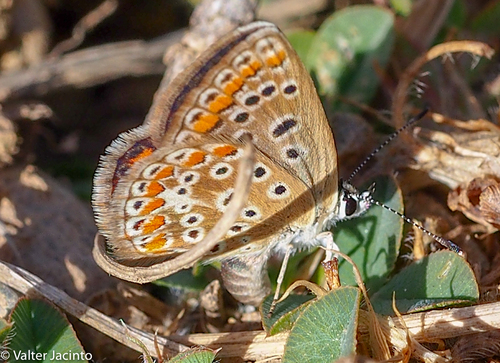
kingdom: Animalia
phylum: Arthropoda
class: Insecta
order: Lepidoptera
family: Lycaenidae
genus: Polyommatus
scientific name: Polyommatus icarus
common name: Common blue
